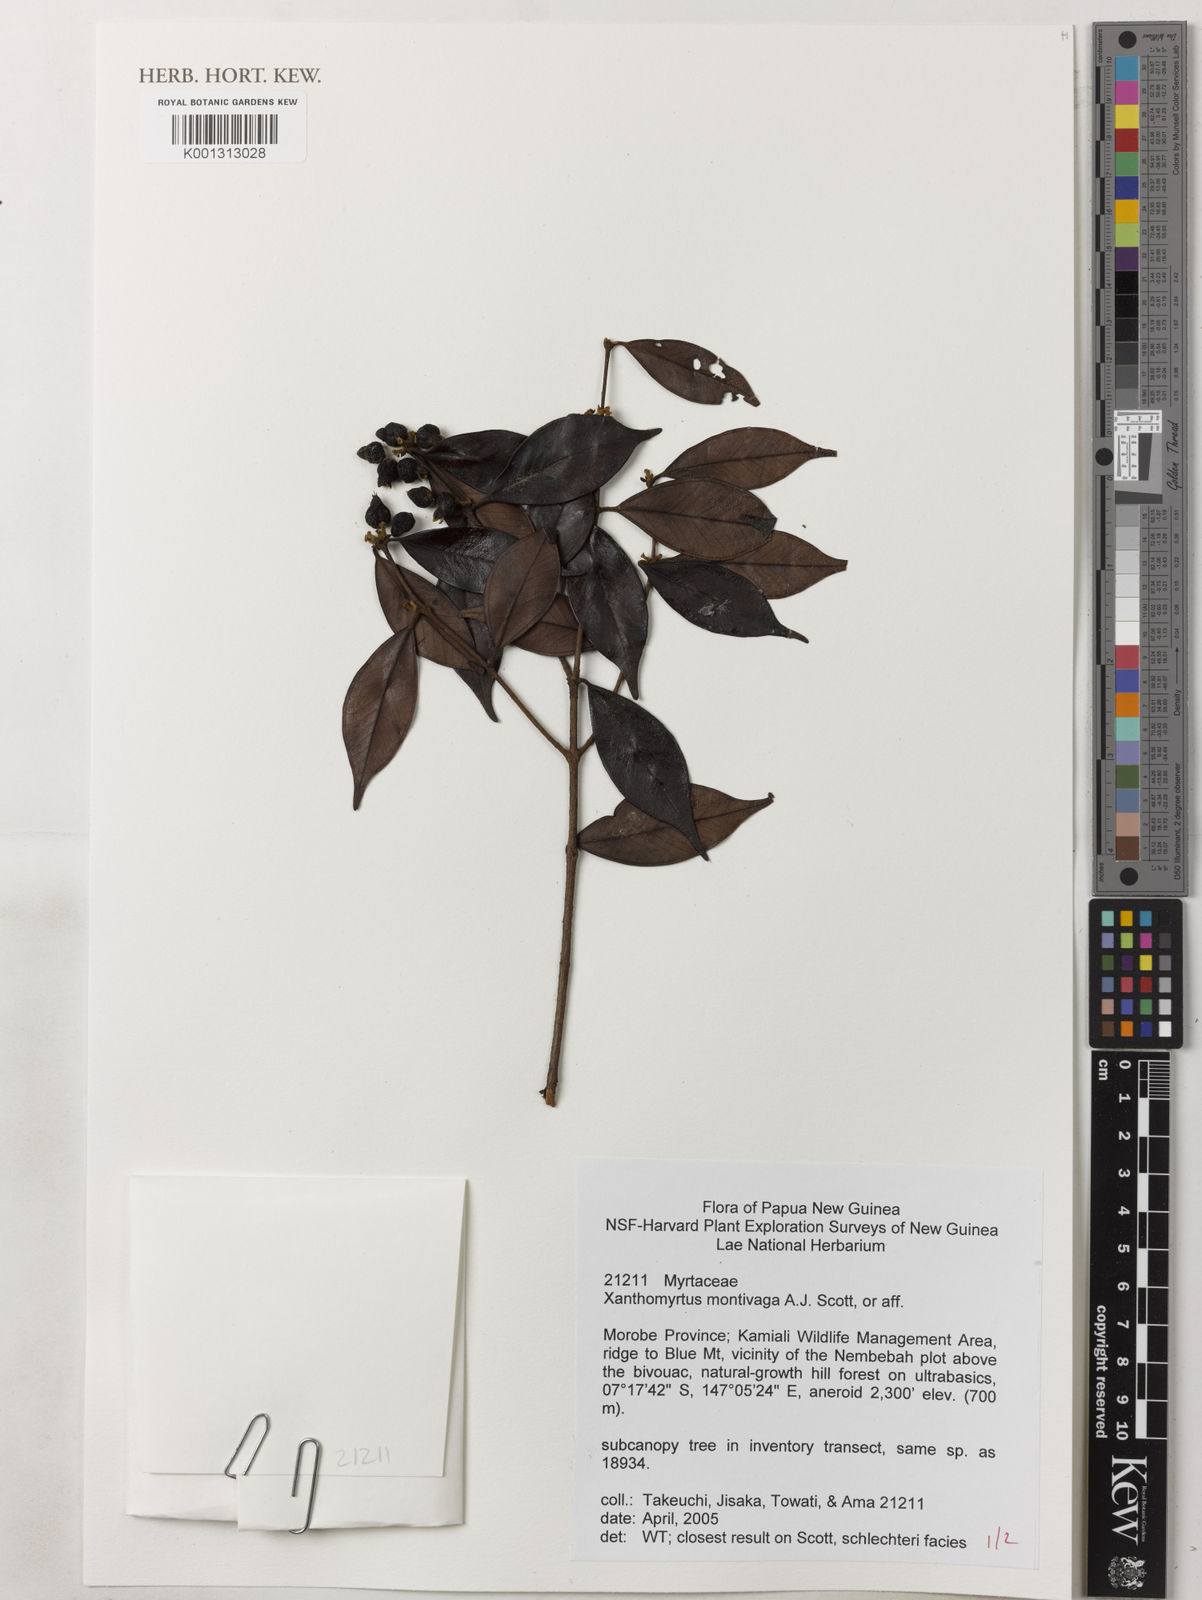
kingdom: Plantae
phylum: Tracheophyta
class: Magnoliopsida
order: Myrtales
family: Myrtaceae
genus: Xanthomyrtus
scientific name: Xanthomyrtus montivaga
